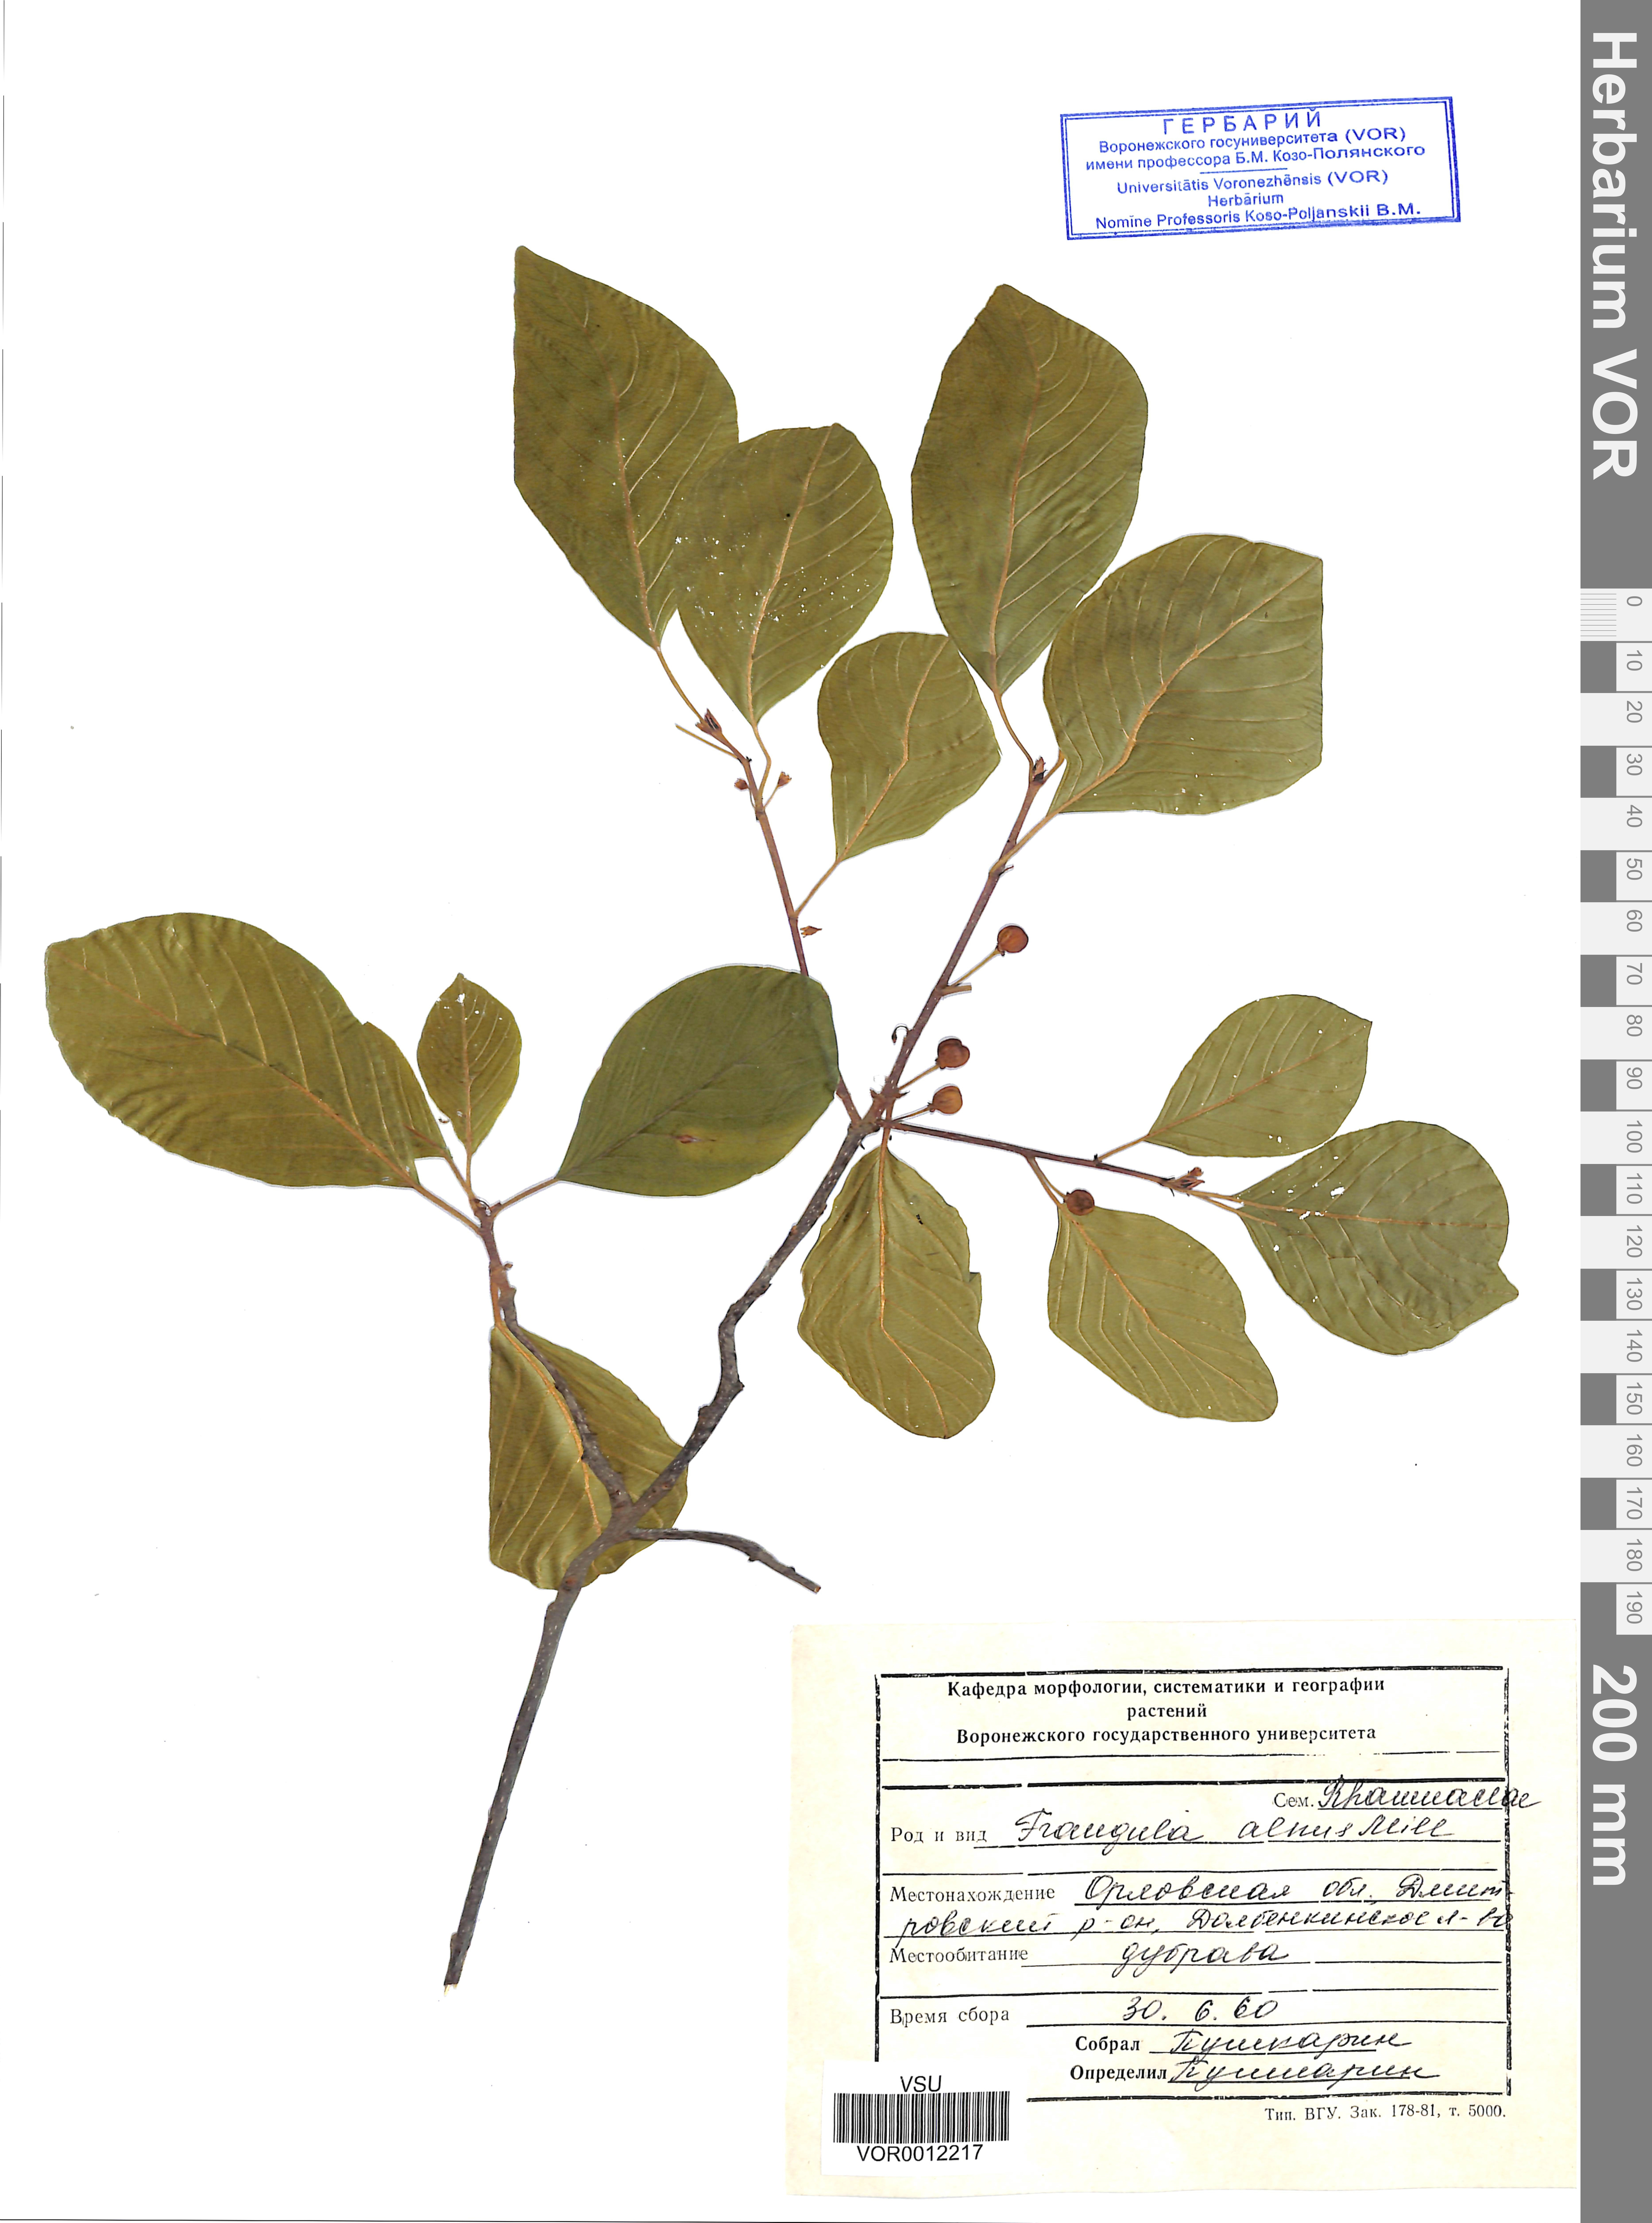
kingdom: Plantae
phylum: Tracheophyta
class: Magnoliopsida
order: Rosales
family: Rhamnaceae
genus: Frangula
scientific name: Frangula alnus
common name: Alder buckthorn
